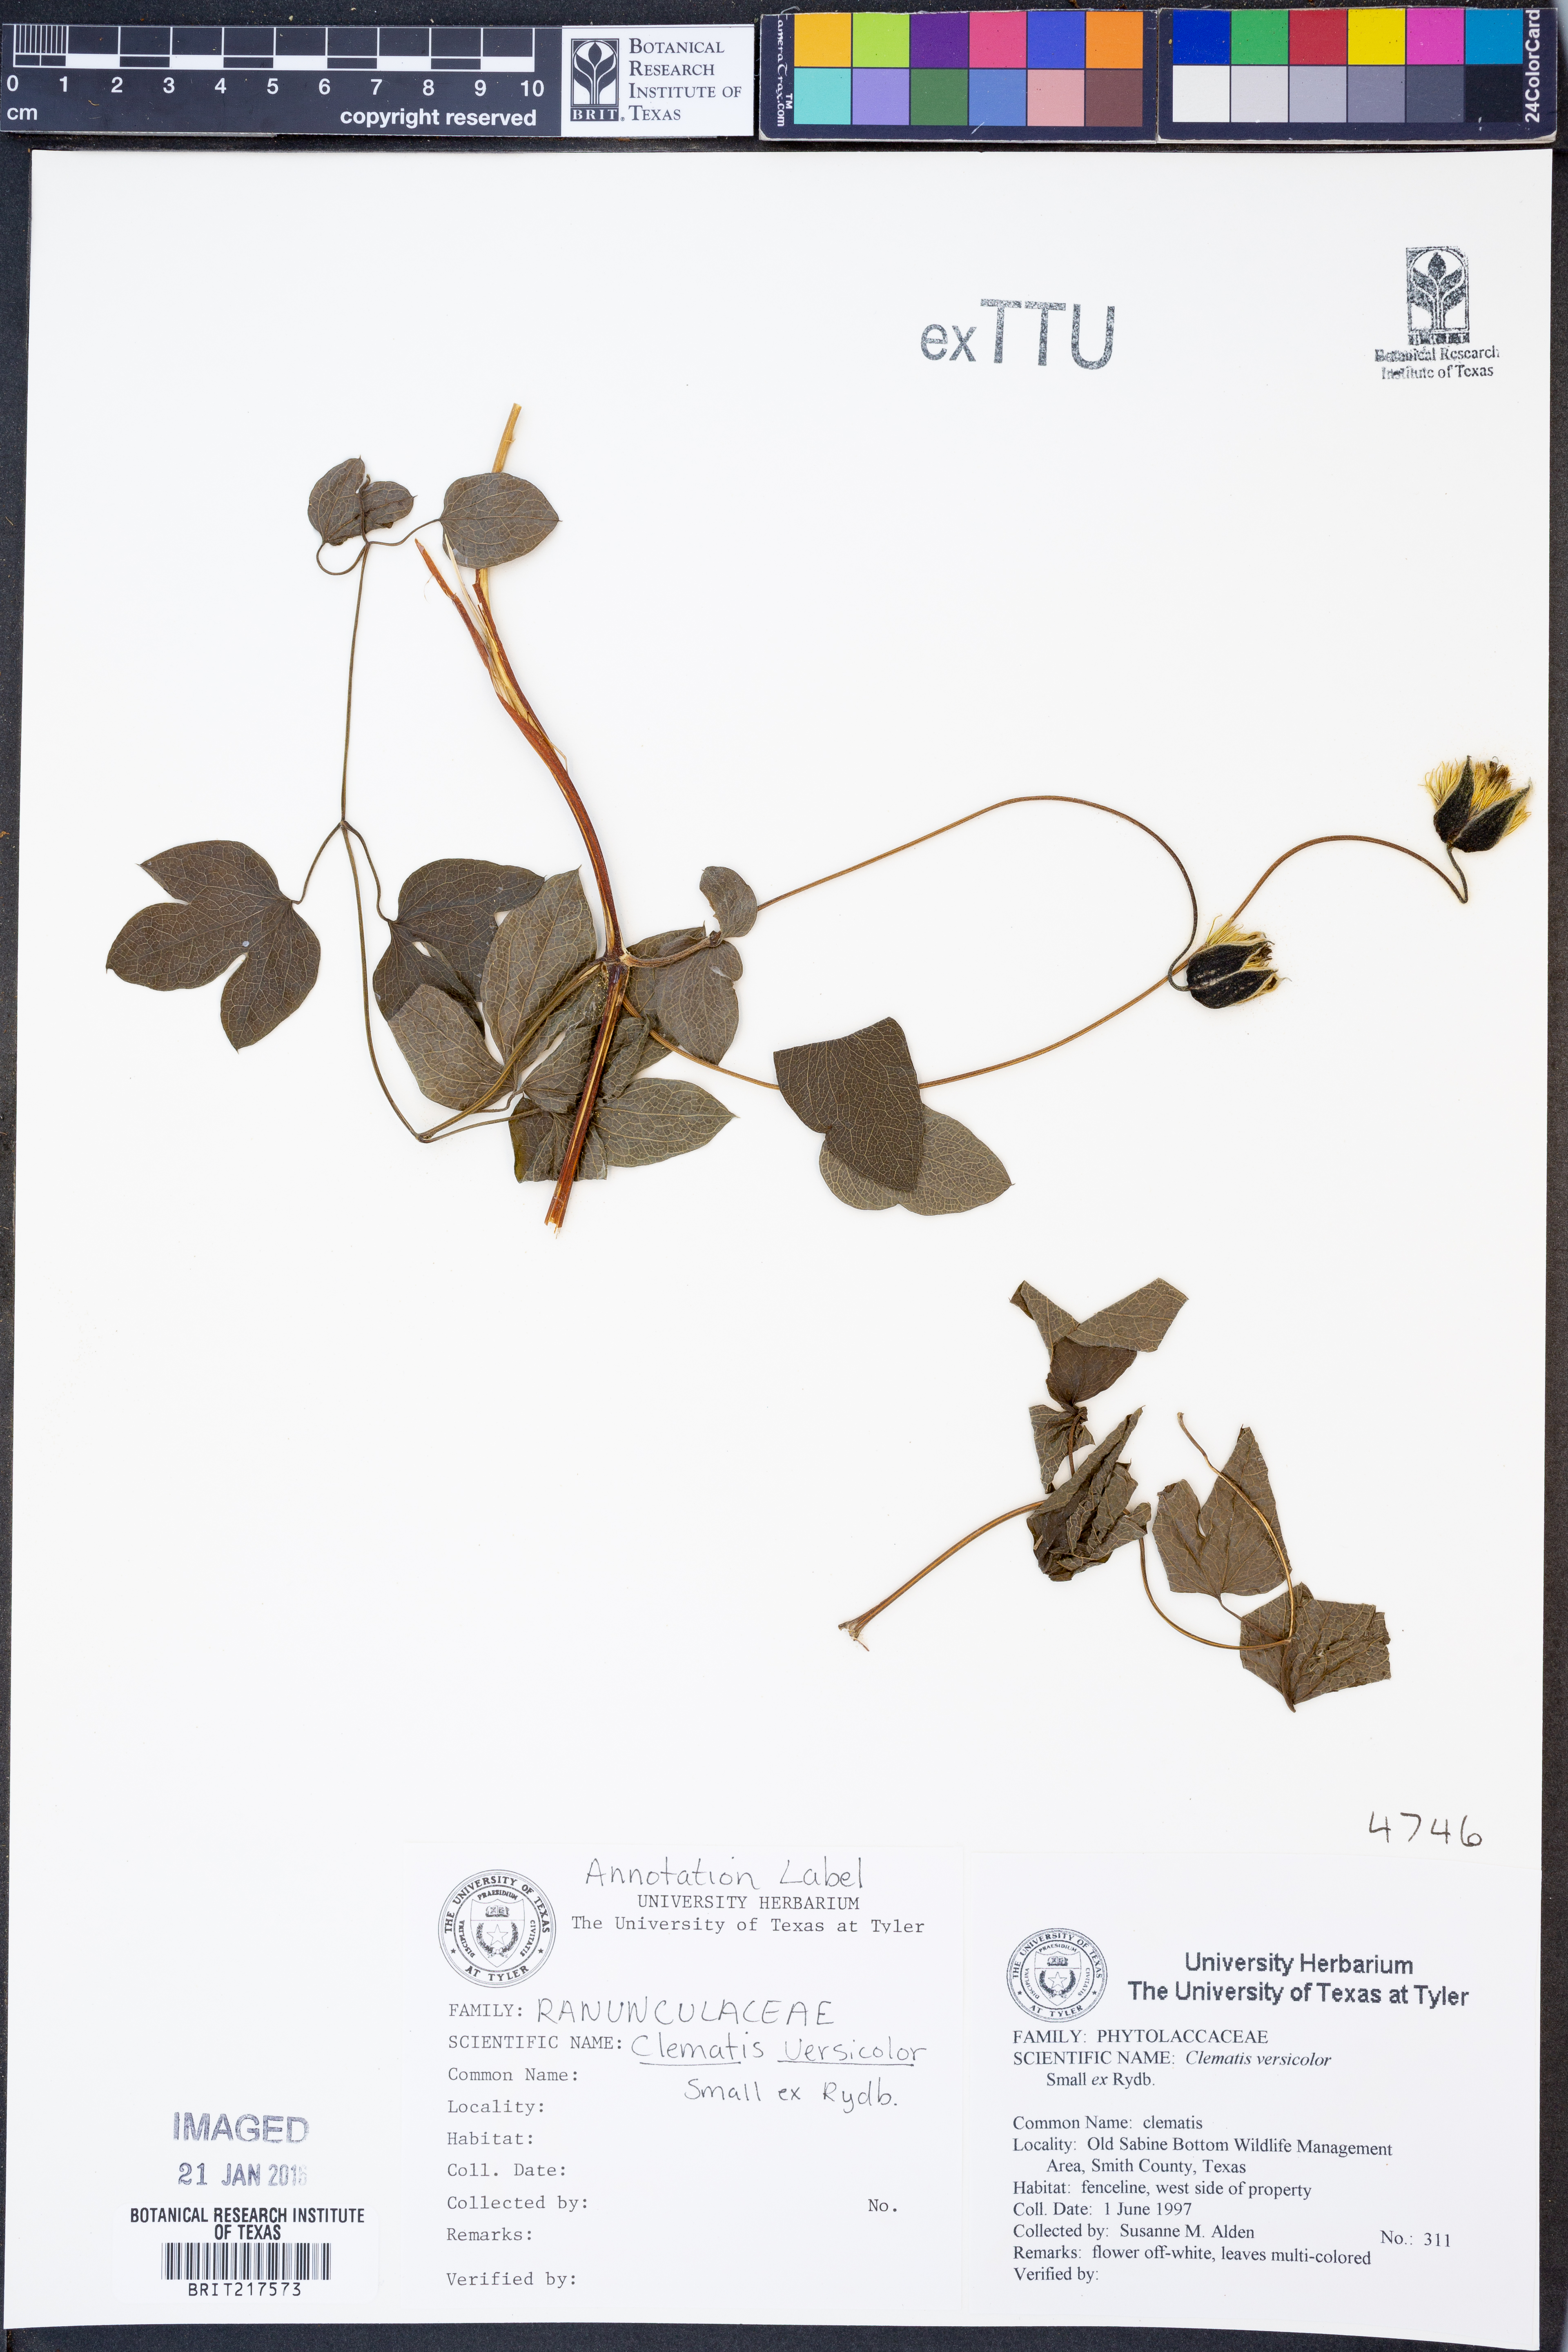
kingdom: Plantae
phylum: Tracheophyta
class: Magnoliopsida
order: Ranunculales
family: Ranunculaceae
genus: Clematis
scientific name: Clematis versicolor
